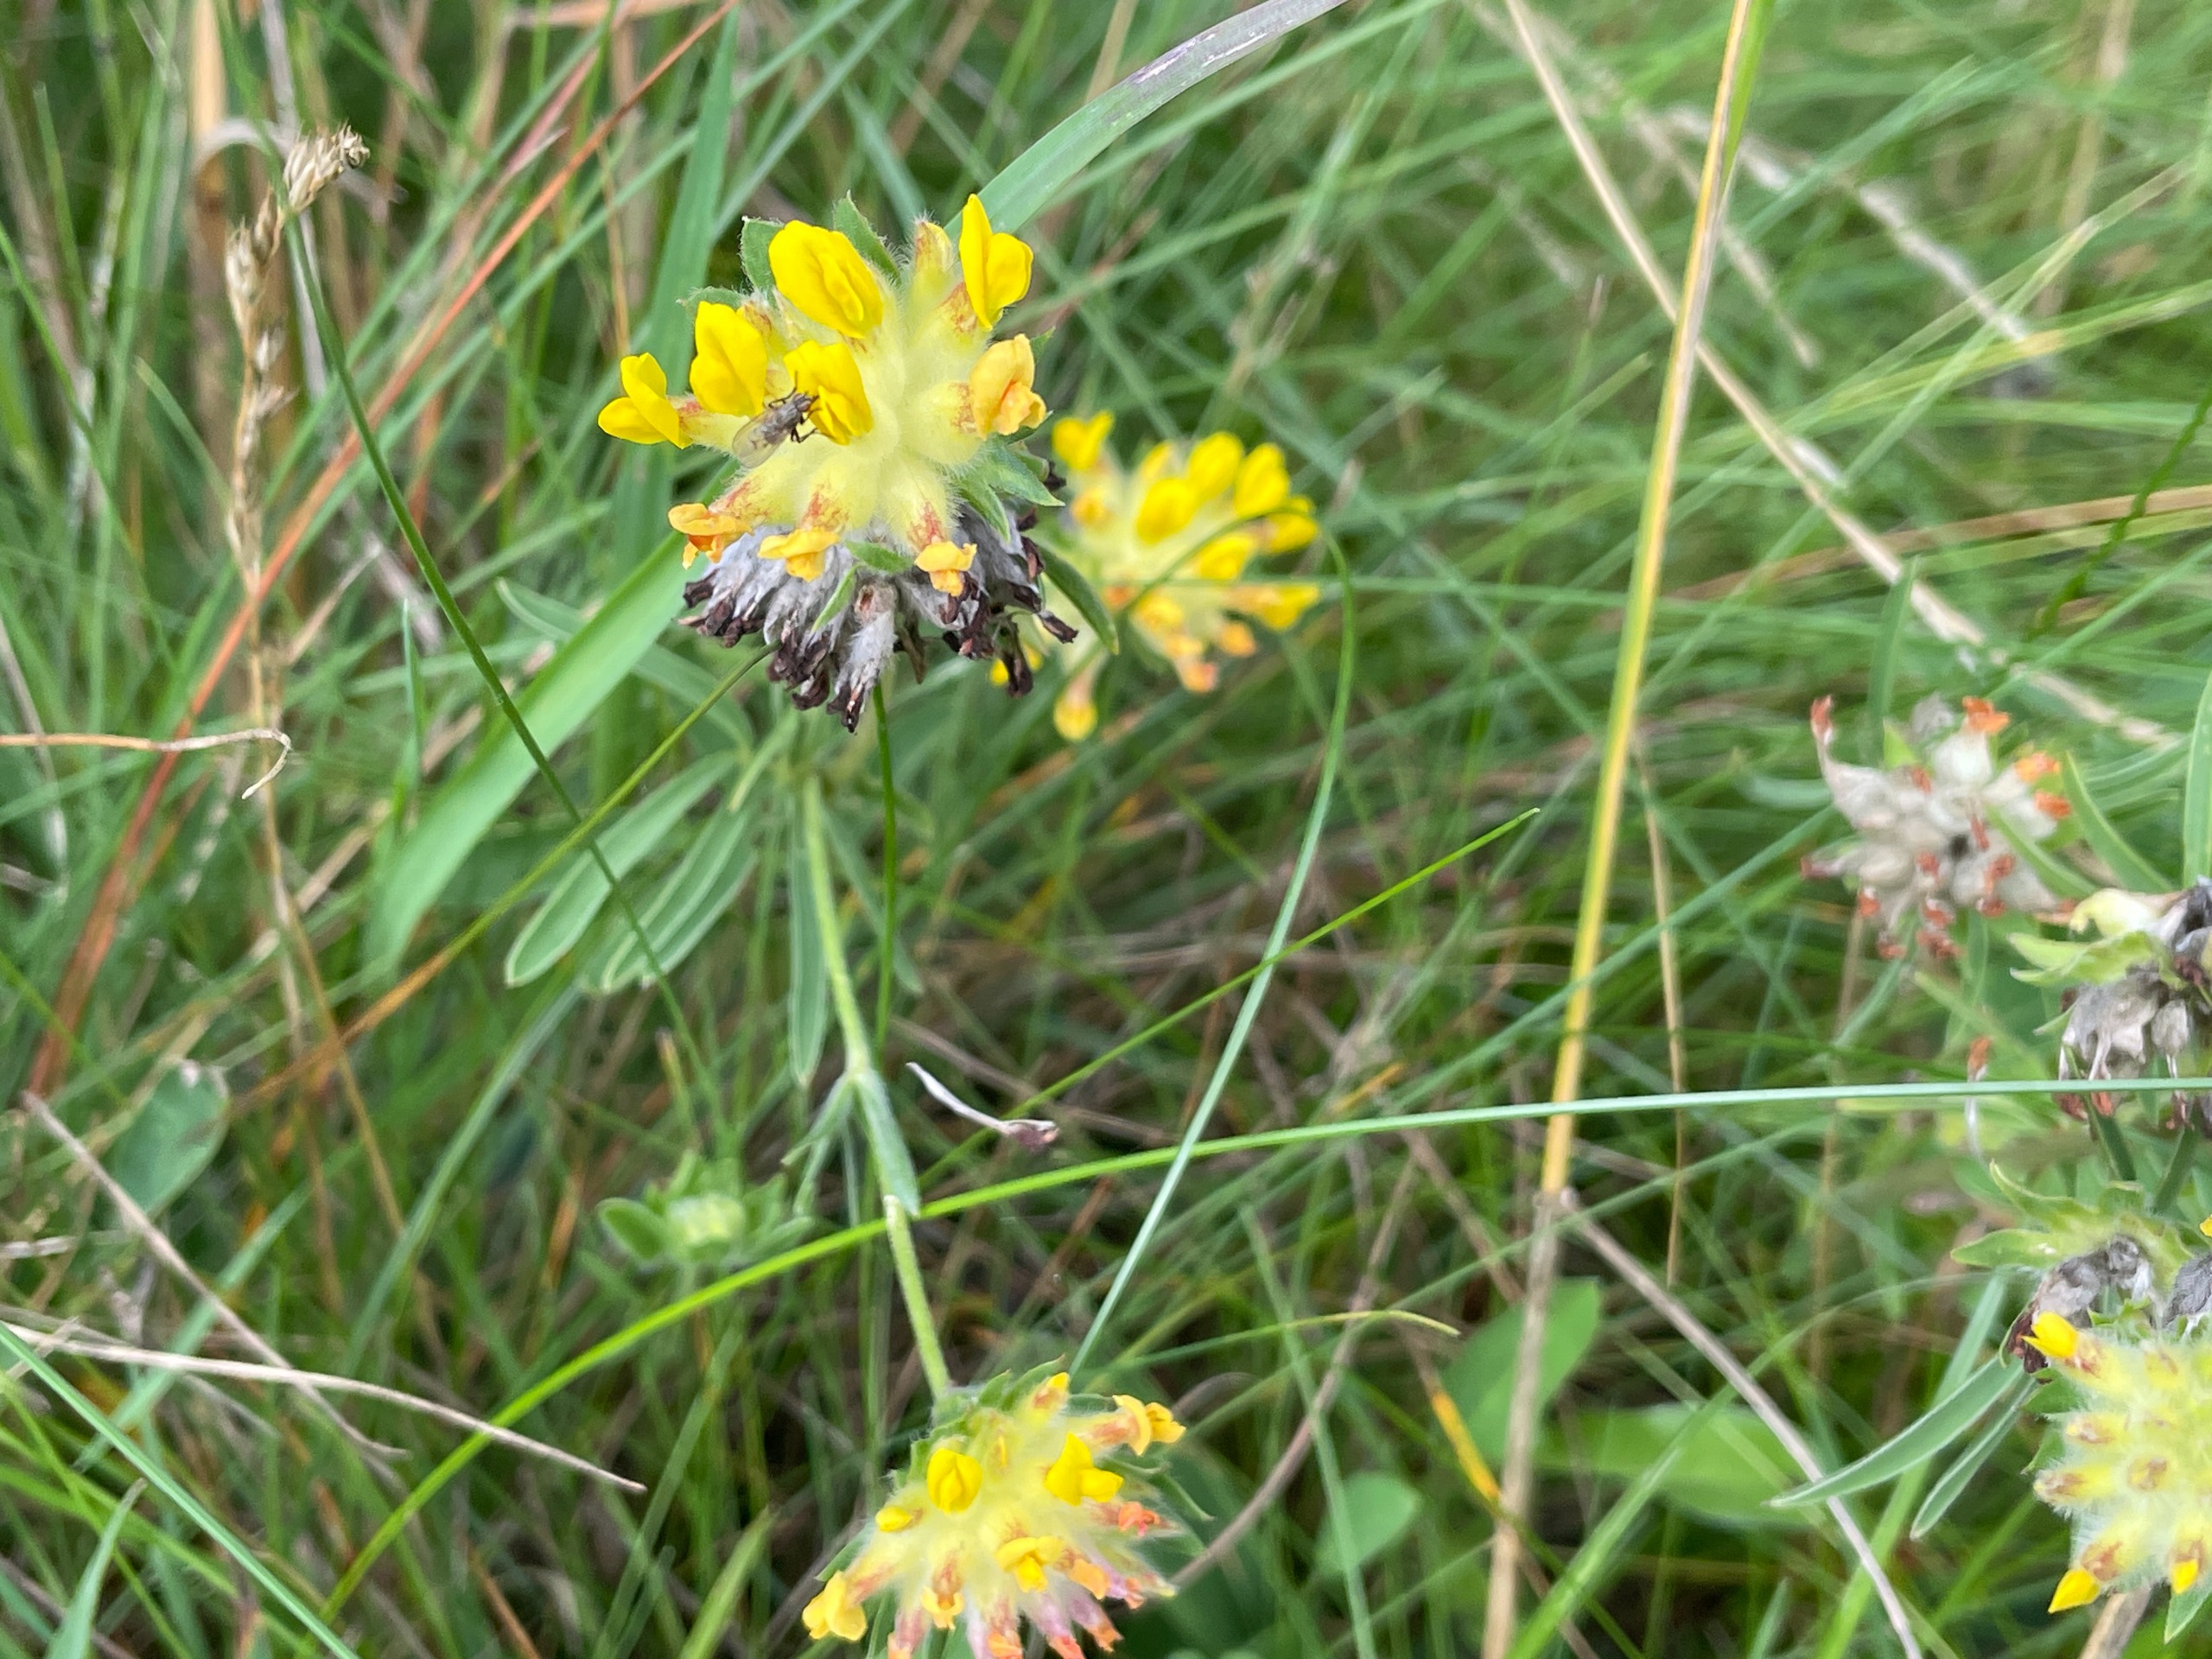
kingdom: Plantae
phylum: Tracheophyta
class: Magnoliopsida
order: Fabales
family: Fabaceae
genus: Anthyllis
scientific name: Anthyllis vulneraria
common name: Rundbælg
